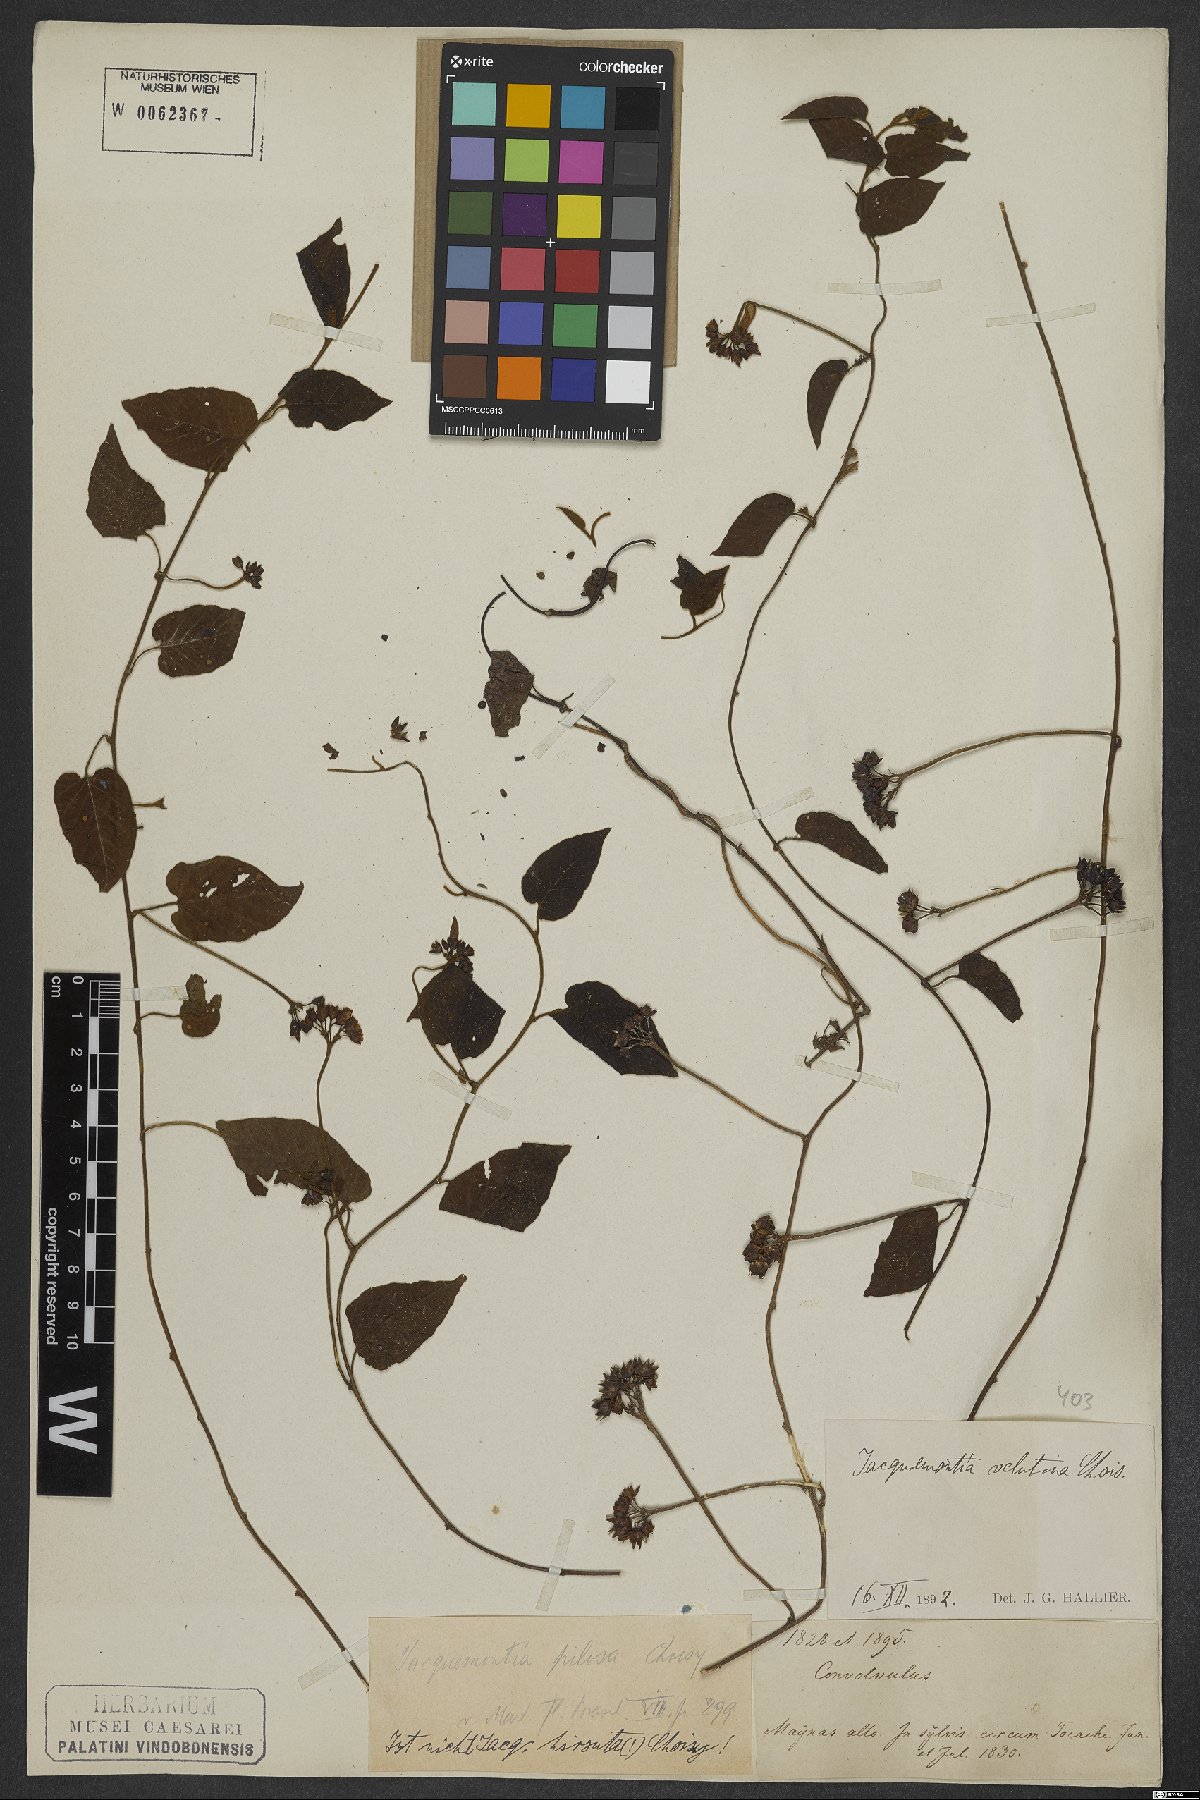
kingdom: Plantae
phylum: Tracheophyta
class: Magnoliopsida
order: Solanales
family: Convolvulaceae
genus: Jacquemontia
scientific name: Jacquemontia velutina
